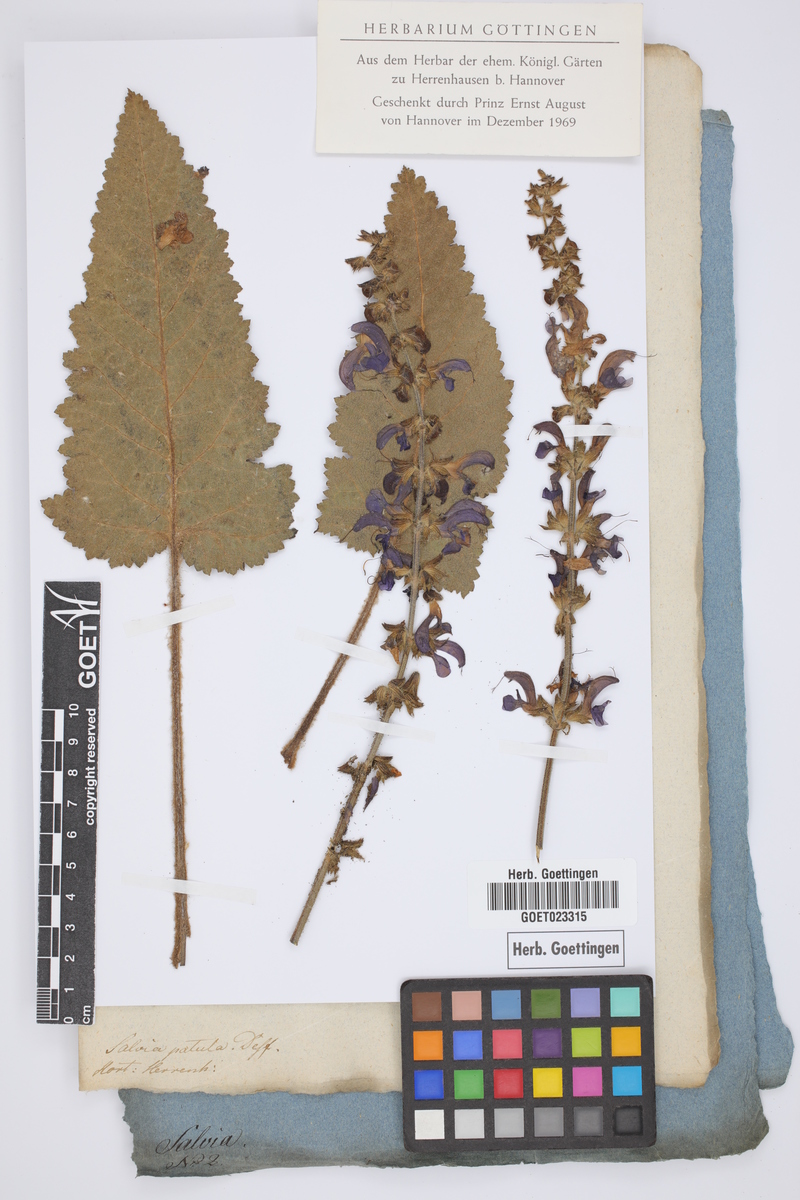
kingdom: Plantae
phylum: Tracheophyta
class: Magnoliopsida
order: Lamiales
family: Lamiaceae
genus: Salvia
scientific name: Salvia argentea
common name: Silver sage
